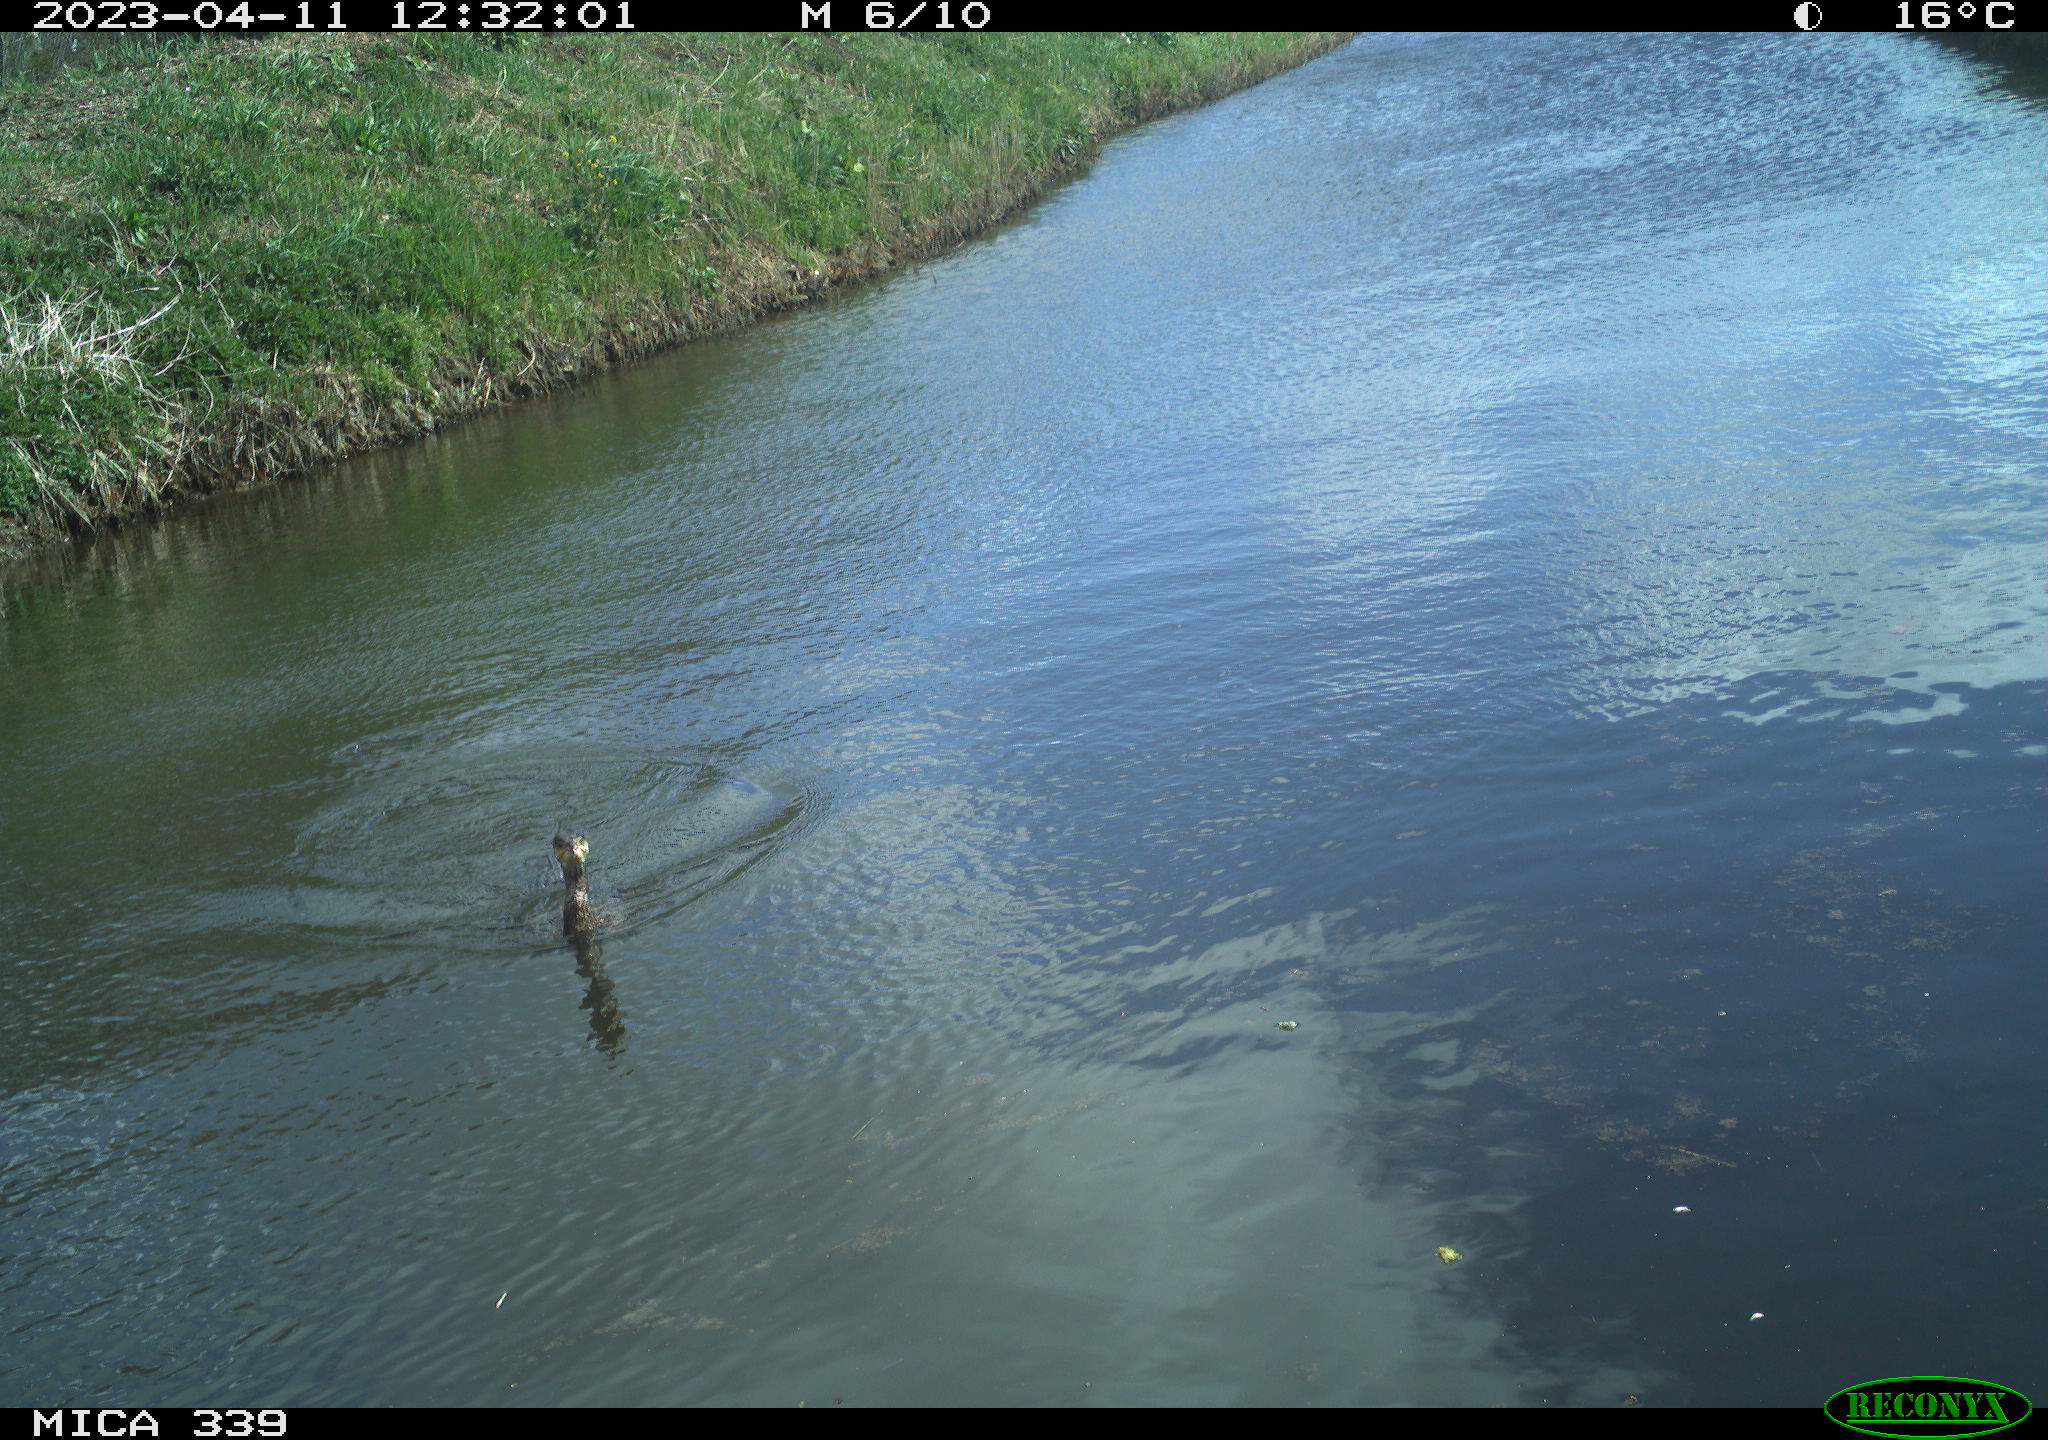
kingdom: Animalia
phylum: Chordata
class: Aves
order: Anseriformes
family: Anatidae
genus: Anas
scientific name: Anas
